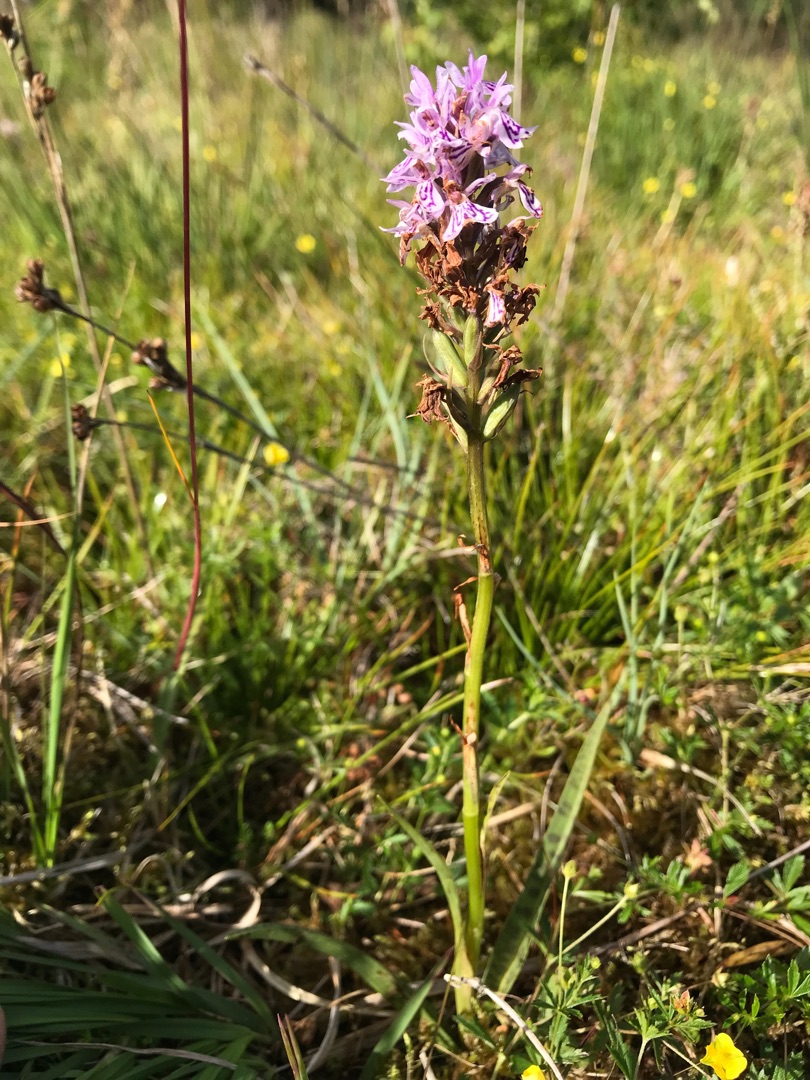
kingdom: Plantae
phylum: Tracheophyta
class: Liliopsida
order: Asparagales
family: Orchidaceae
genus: Dactylorhiza
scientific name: Dactylorhiza maculata
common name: Plettet gøgeurt
